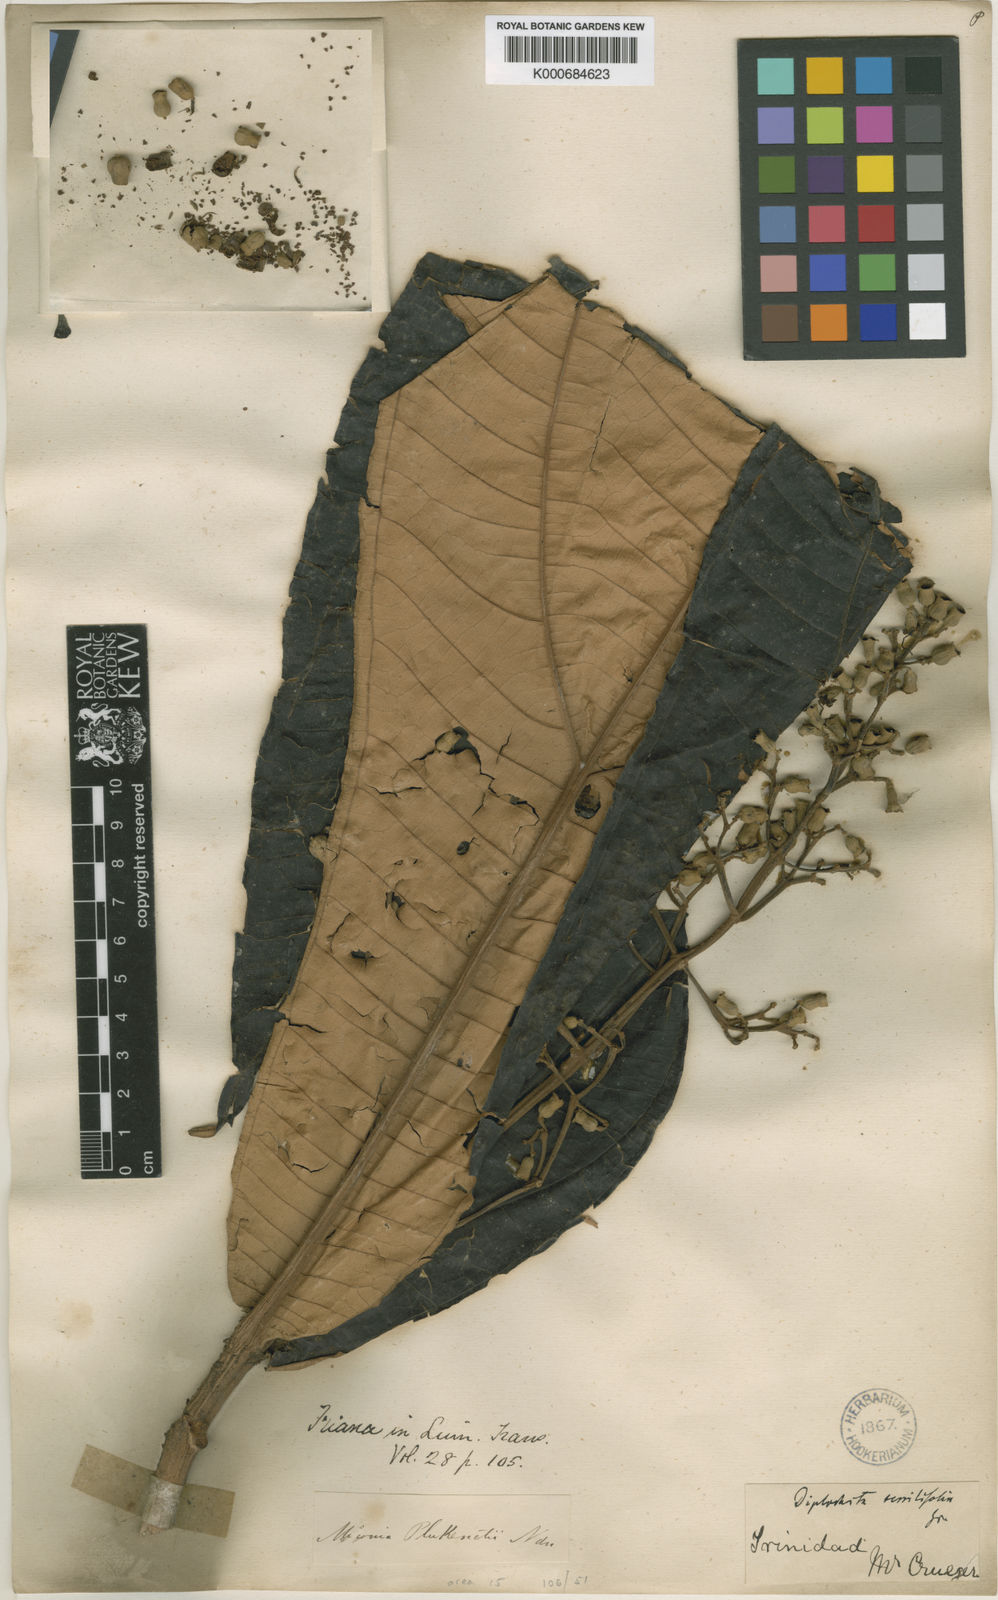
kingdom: Plantae
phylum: Tracheophyta
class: Magnoliopsida
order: Myrtales
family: Melastomataceae
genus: Miconia
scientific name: Miconia plukenetii
